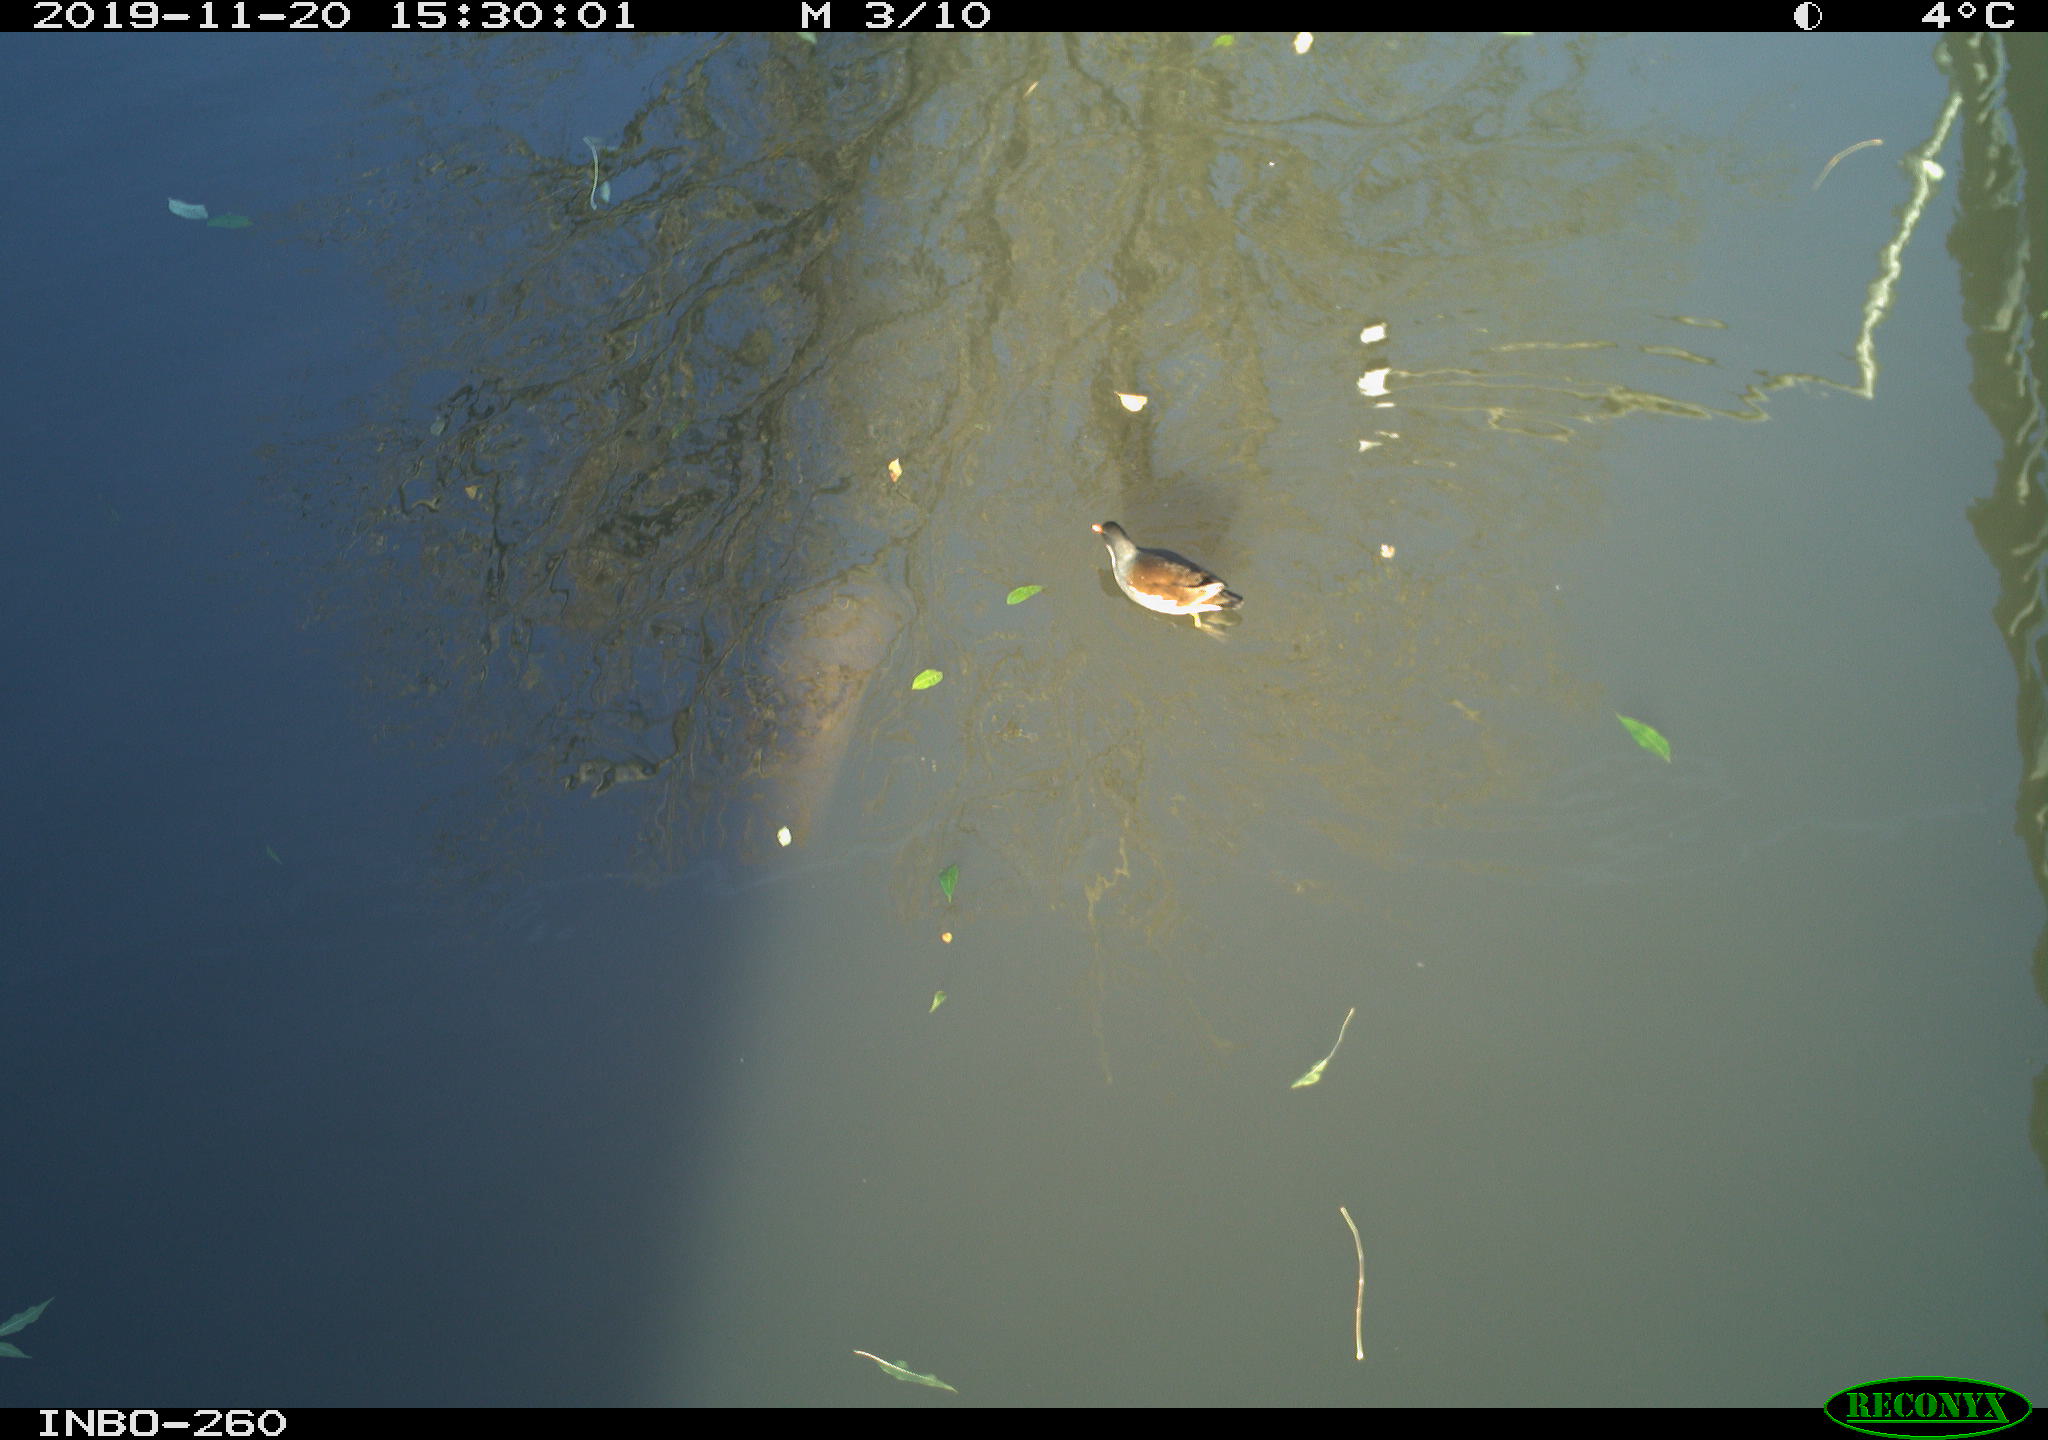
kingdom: Animalia
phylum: Chordata
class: Aves
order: Gruiformes
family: Rallidae
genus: Gallinula
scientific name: Gallinula chloropus
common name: Common moorhen
